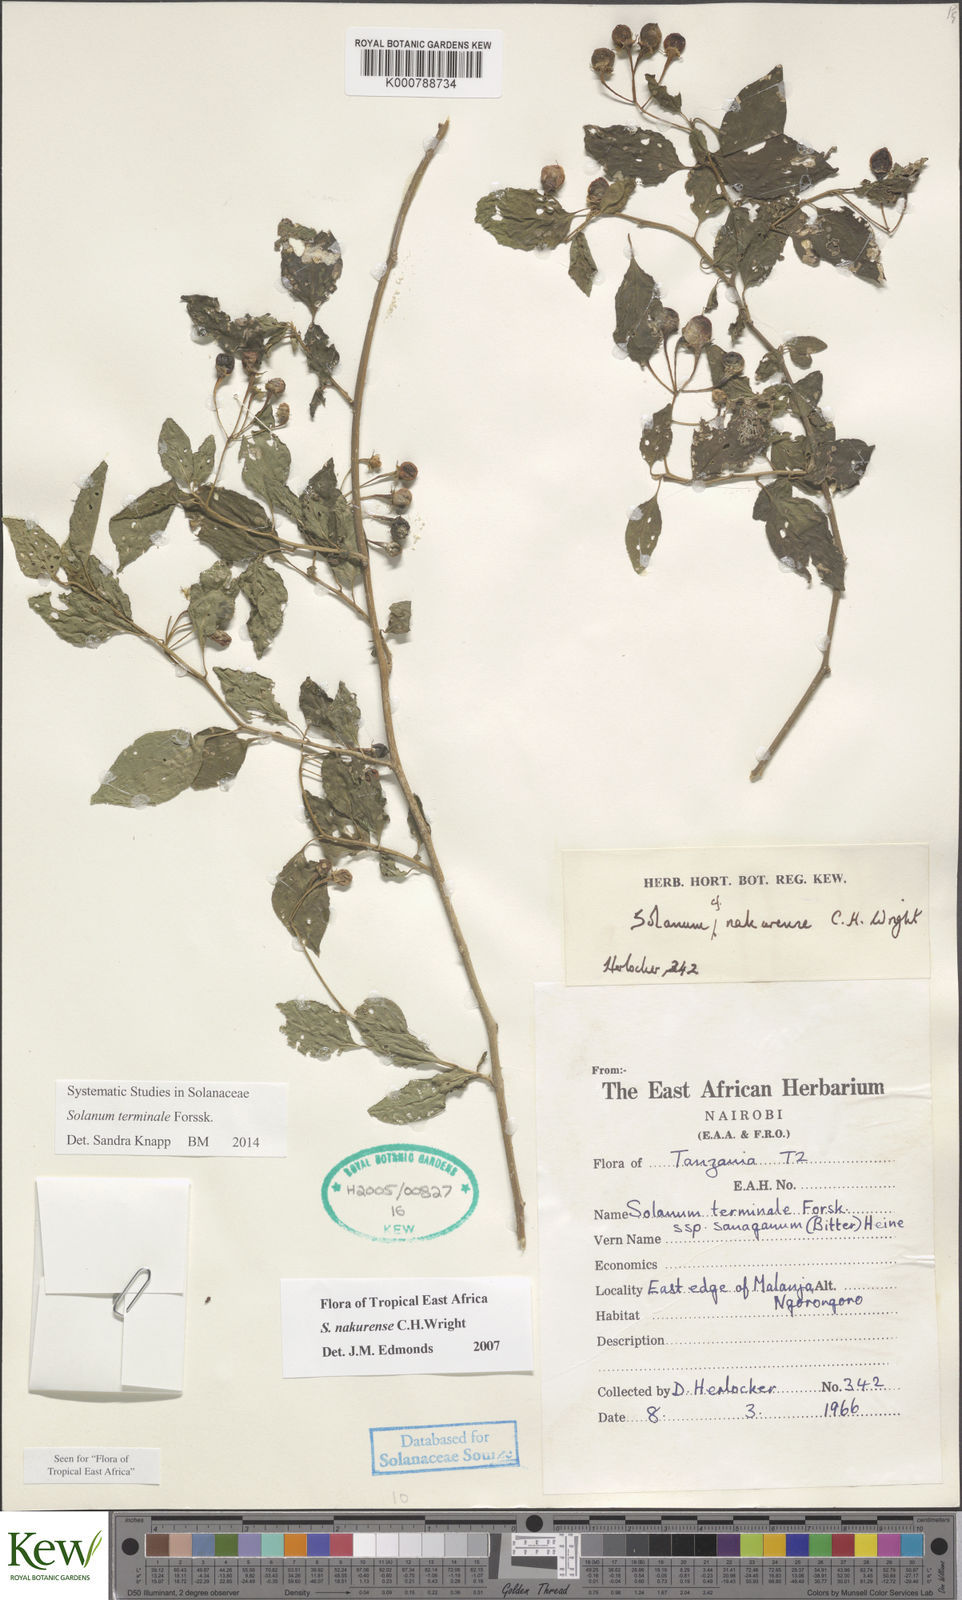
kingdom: Plantae
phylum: Tracheophyta
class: Magnoliopsida
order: Solanales
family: Solanaceae
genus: Solanum
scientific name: Solanum terminale
